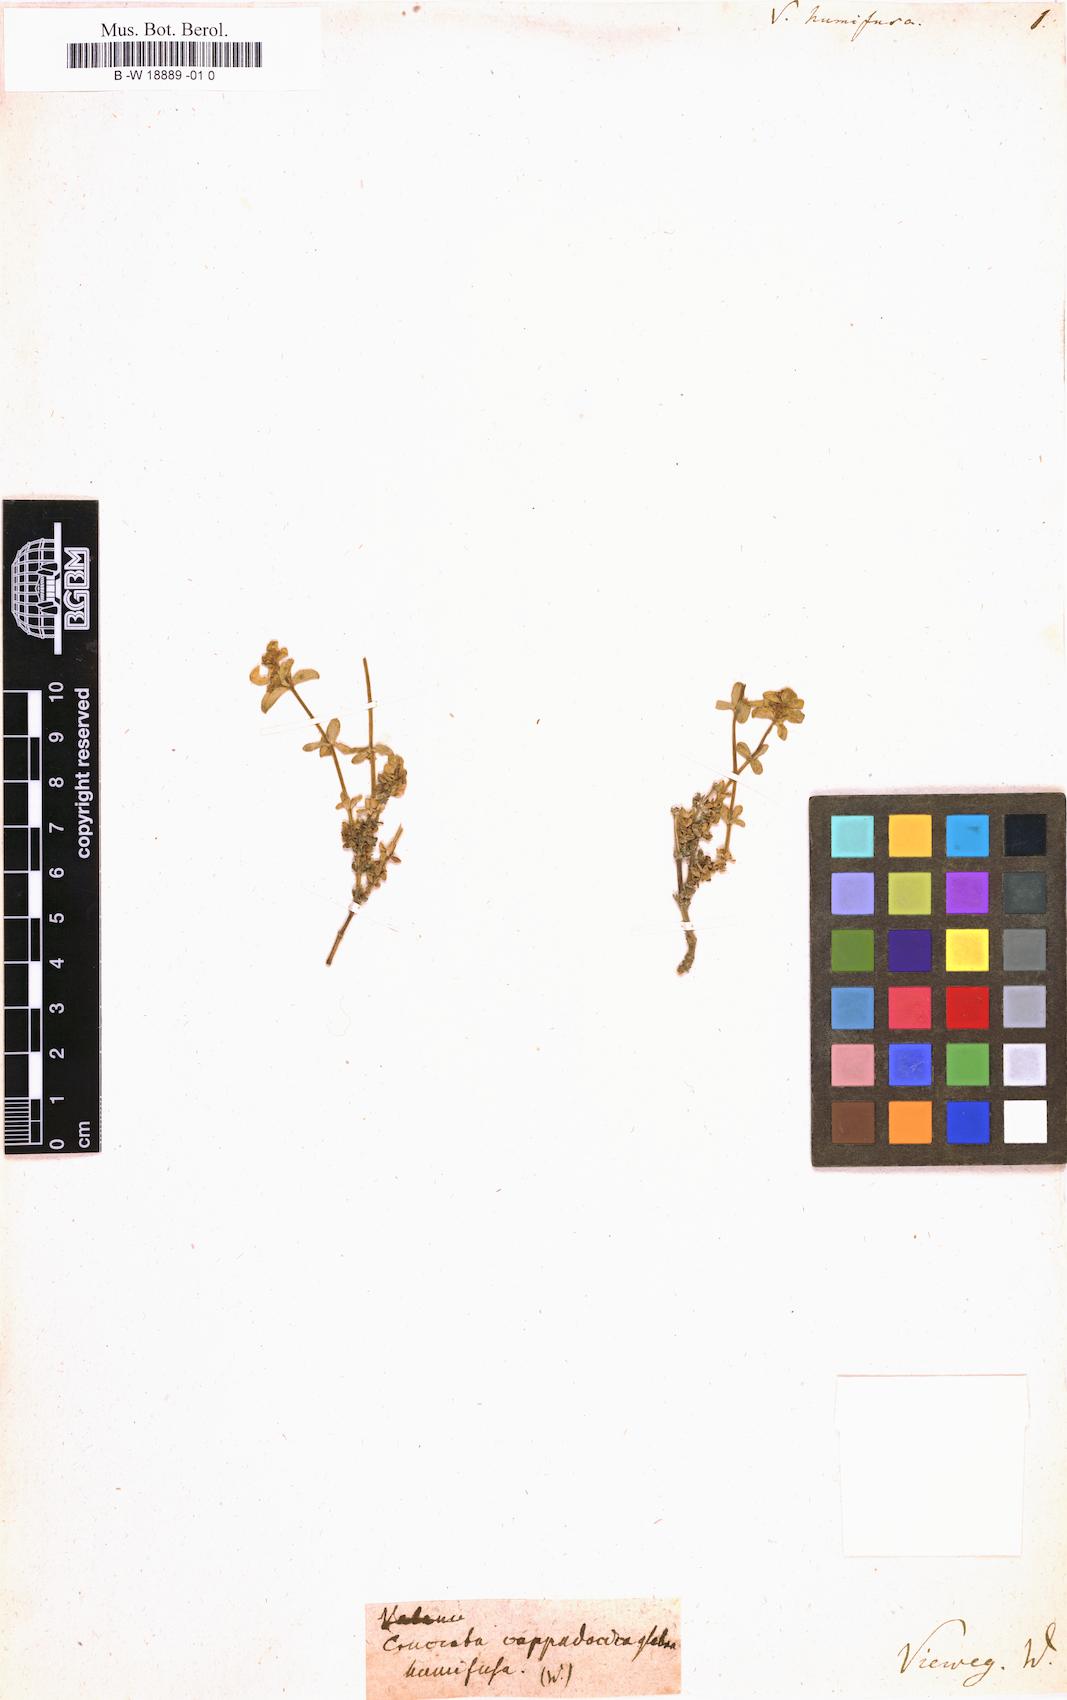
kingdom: Plantae
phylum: Tracheophyta
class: Magnoliopsida
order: Gentianales
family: Rubiaceae
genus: Cruciata
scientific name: Cruciata taurica
